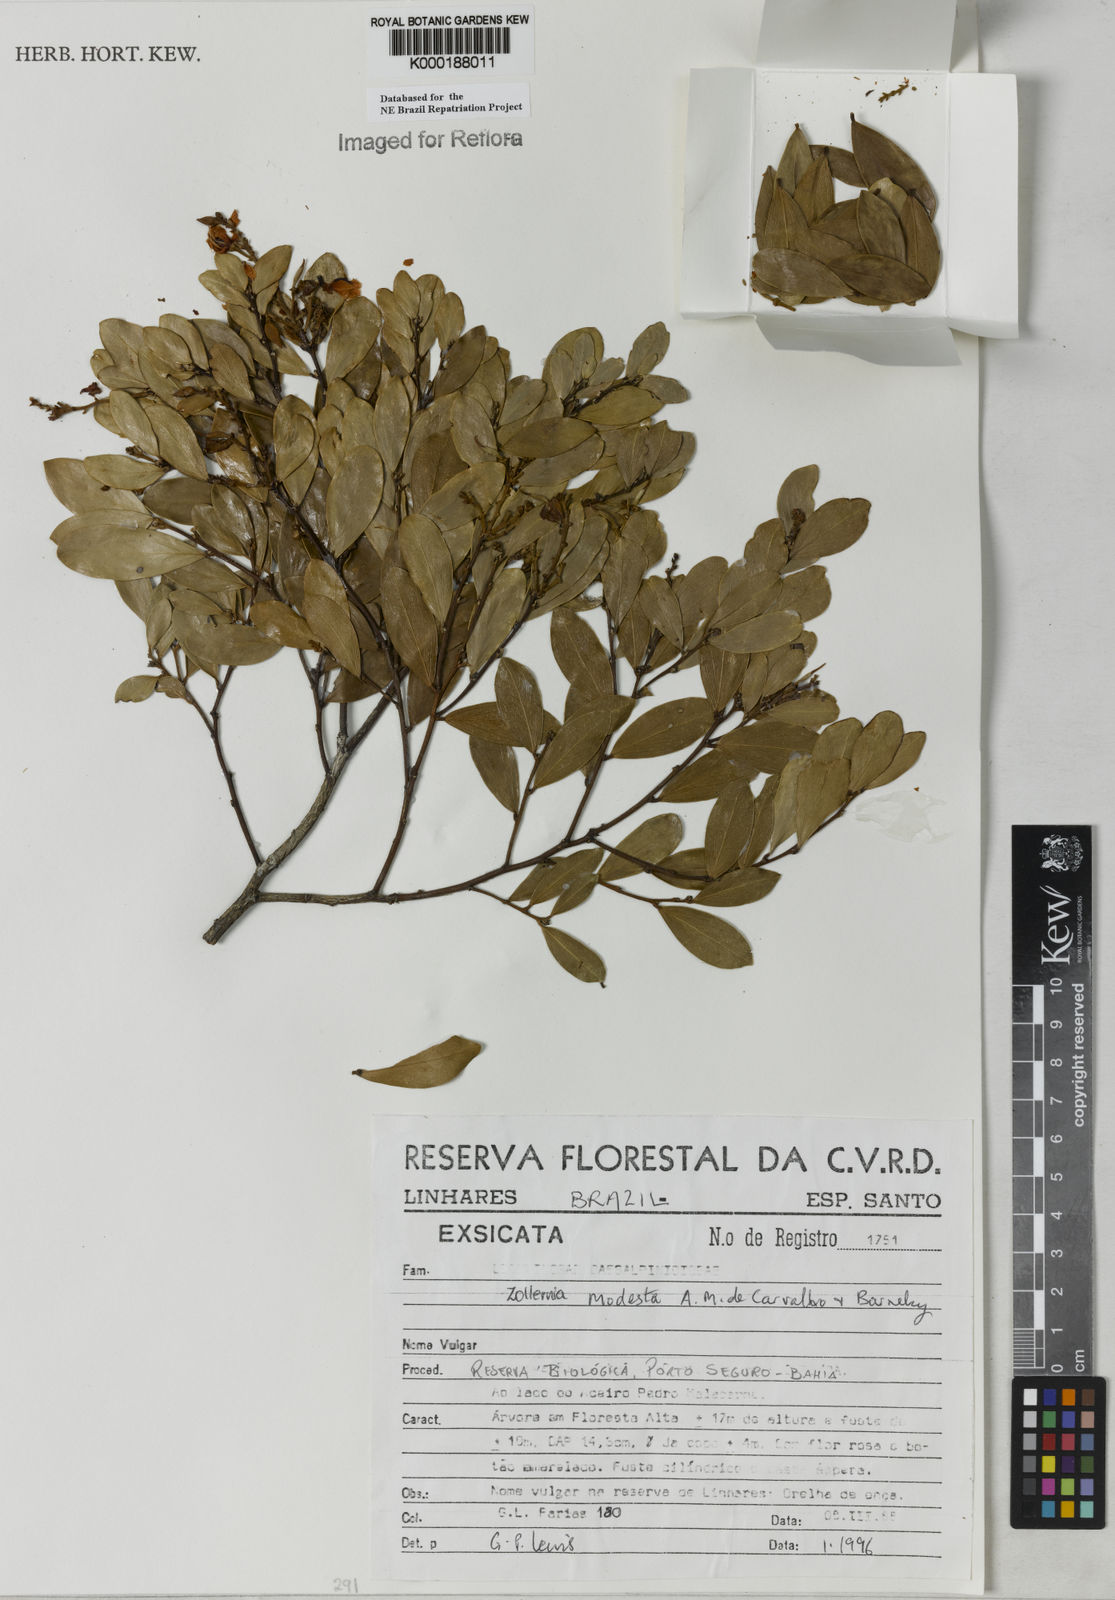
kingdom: Plantae
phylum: Tracheophyta
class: Magnoliopsida
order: Fabales
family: Fabaceae
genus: Zollernia
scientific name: Zollernia modesta
